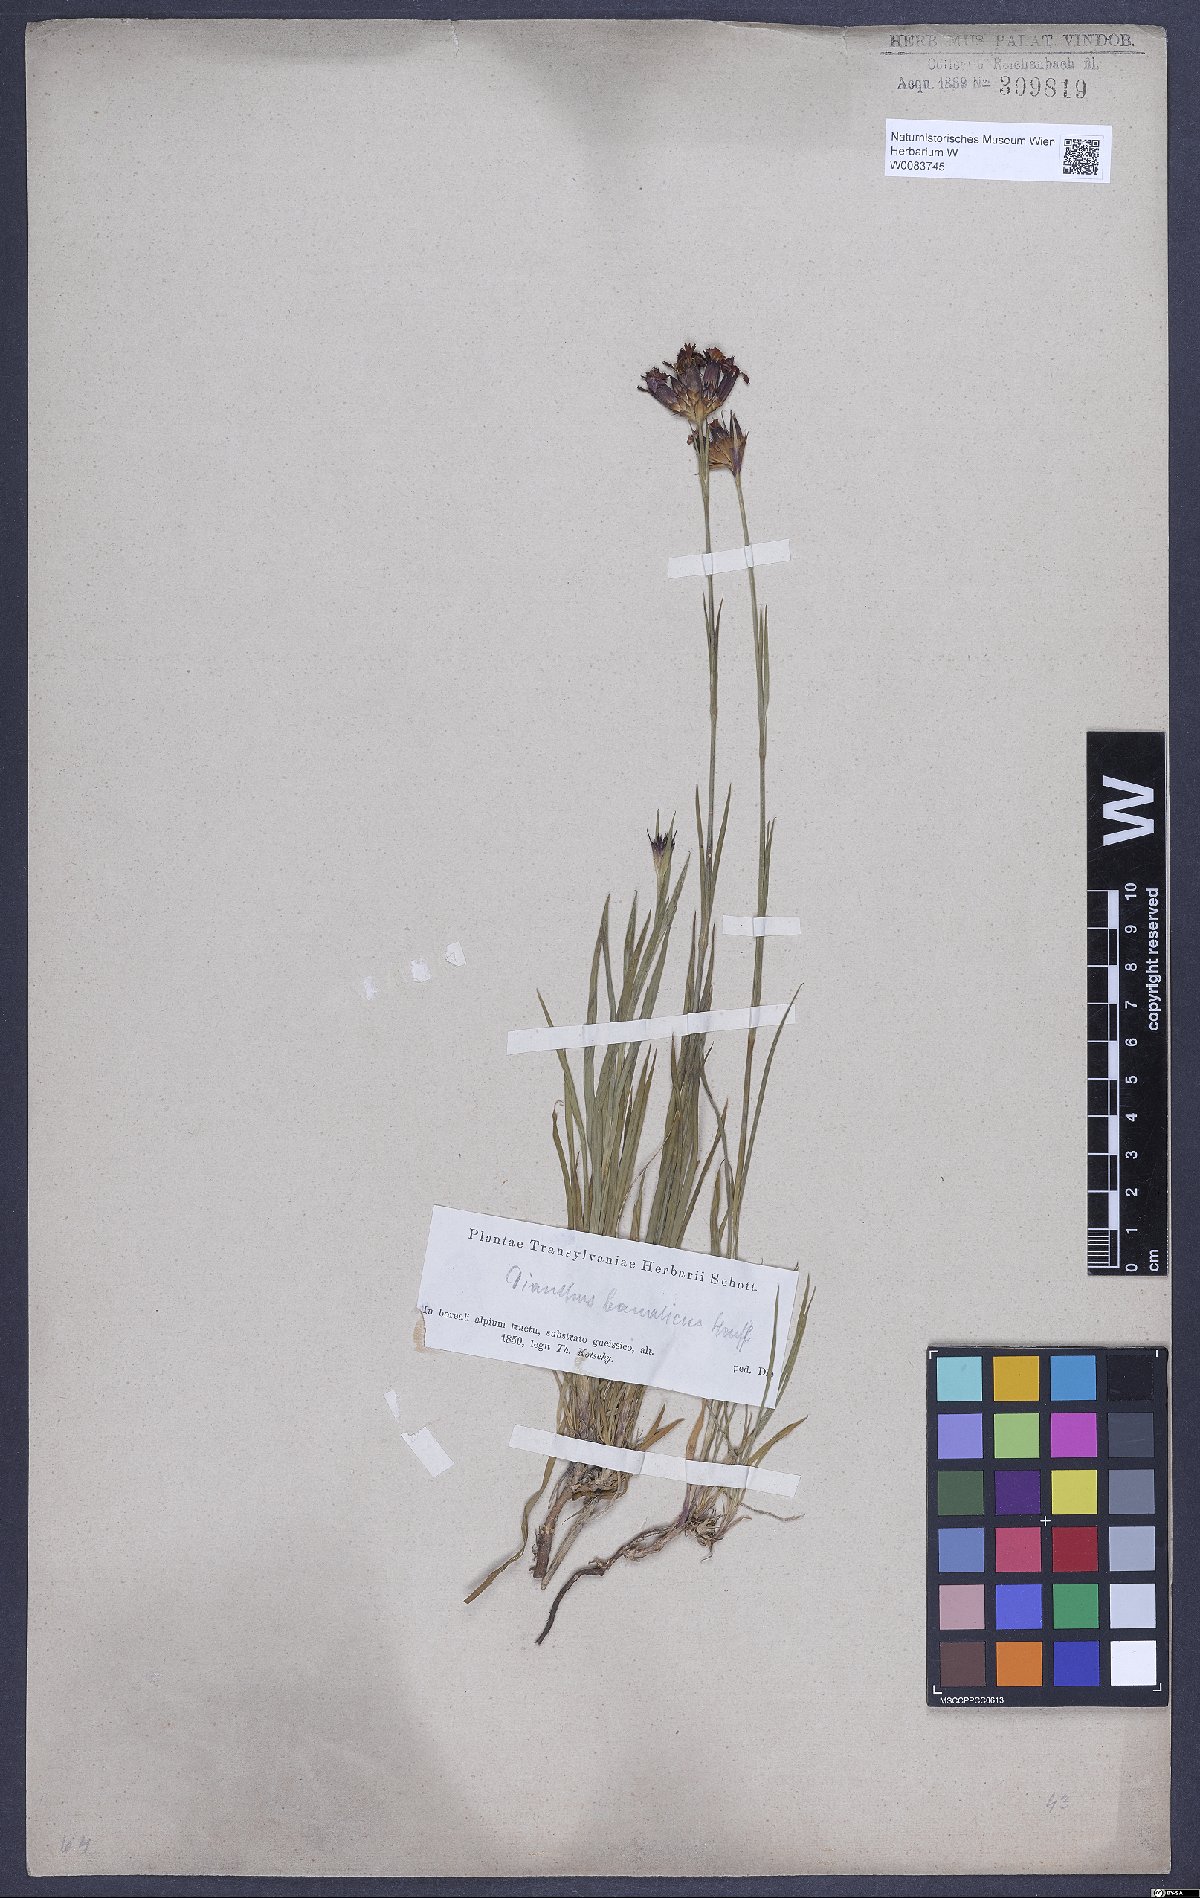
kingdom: Plantae
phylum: Tracheophyta
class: Magnoliopsida
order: Caryophyllales
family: Caryophyllaceae
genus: Dianthus
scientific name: Dianthus giganteus
